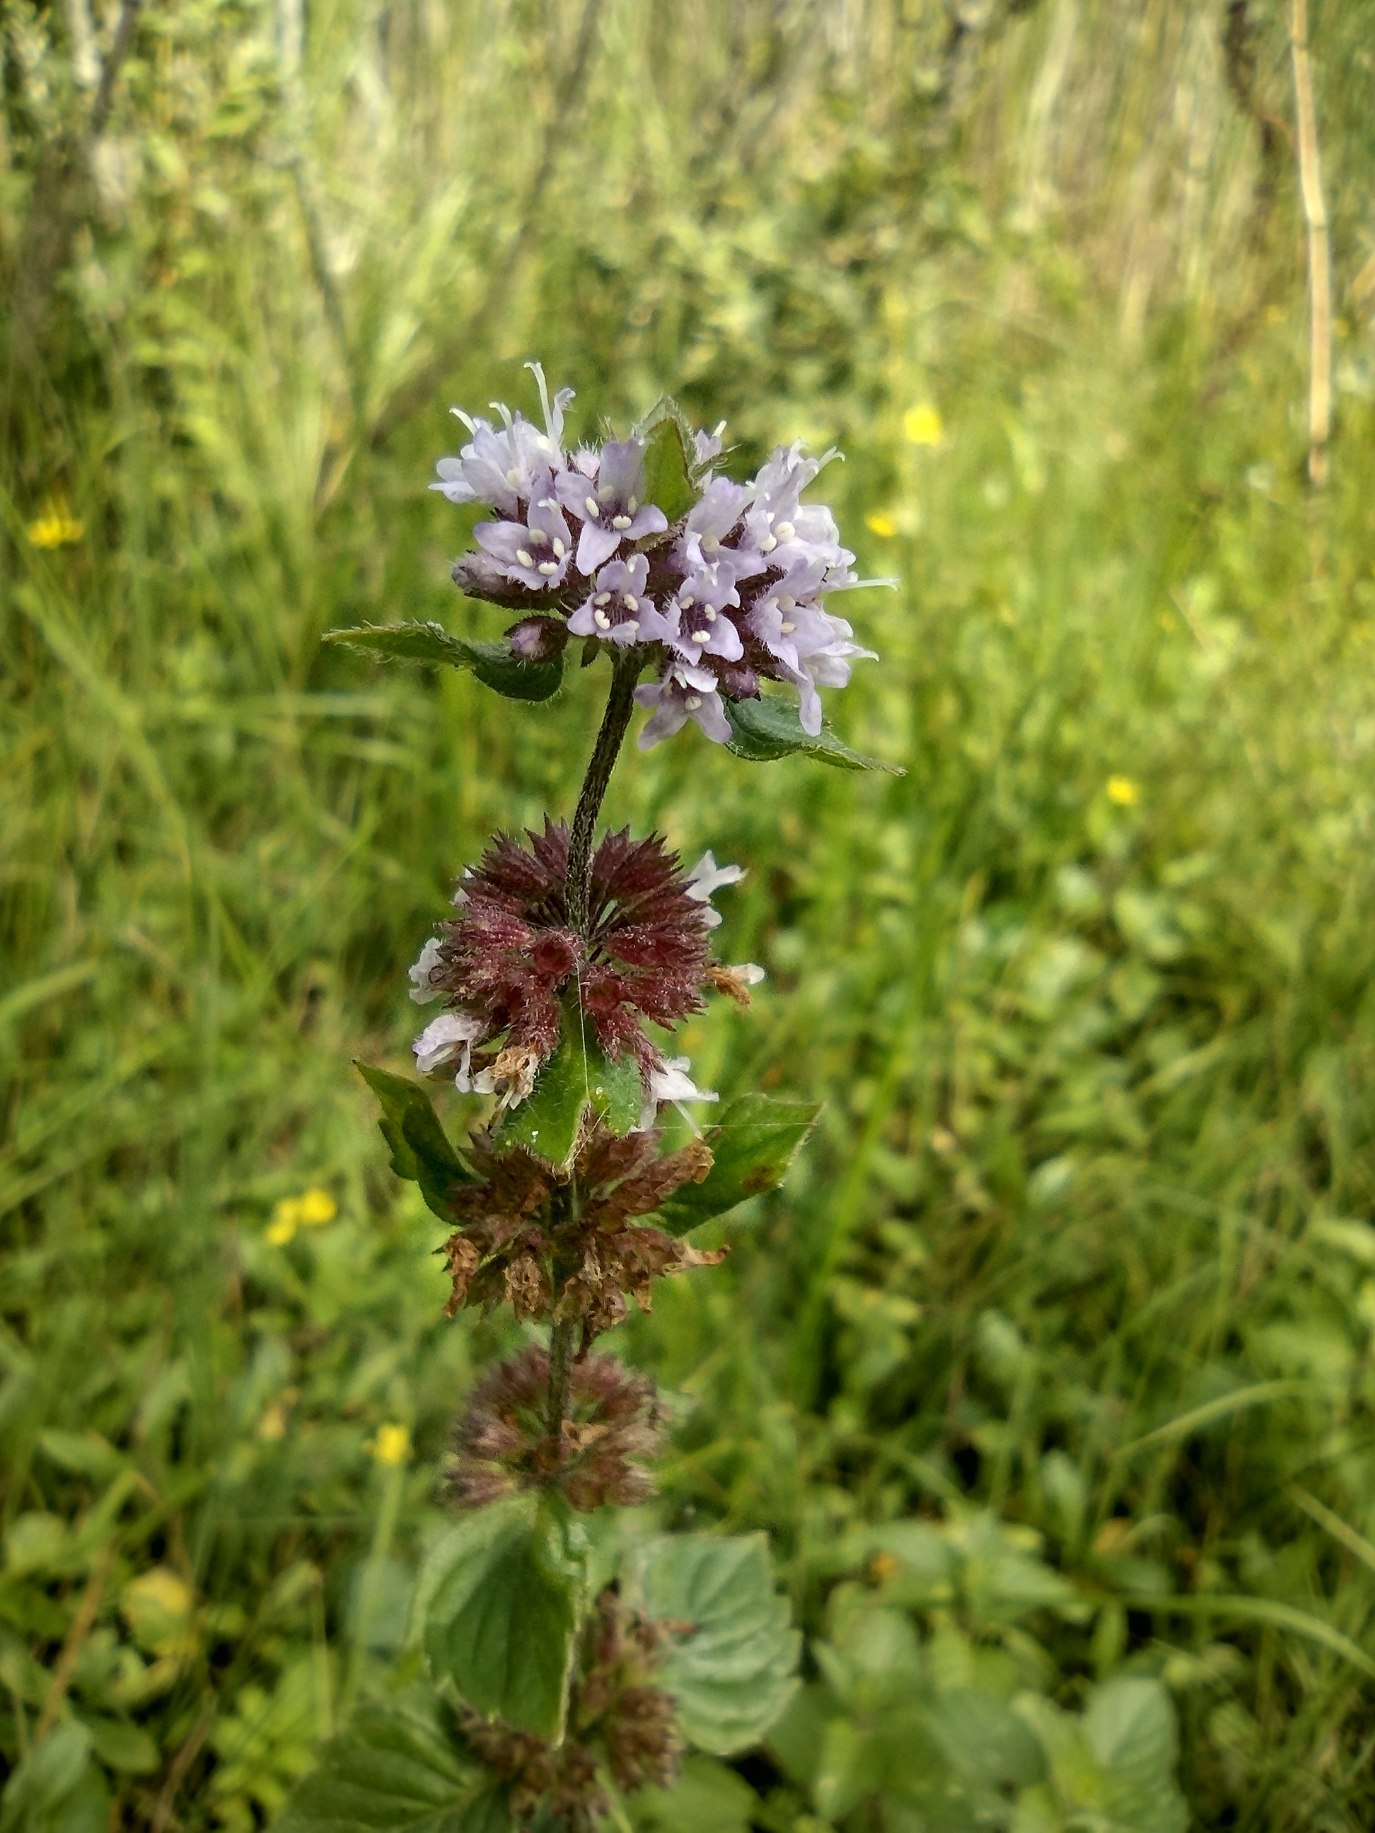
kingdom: Plantae
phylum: Tracheophyta
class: Magnoliopsida
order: Lamiales
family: Lamiaceae
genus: Mentha
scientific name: Mentha verticillata
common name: Krans-mynte
